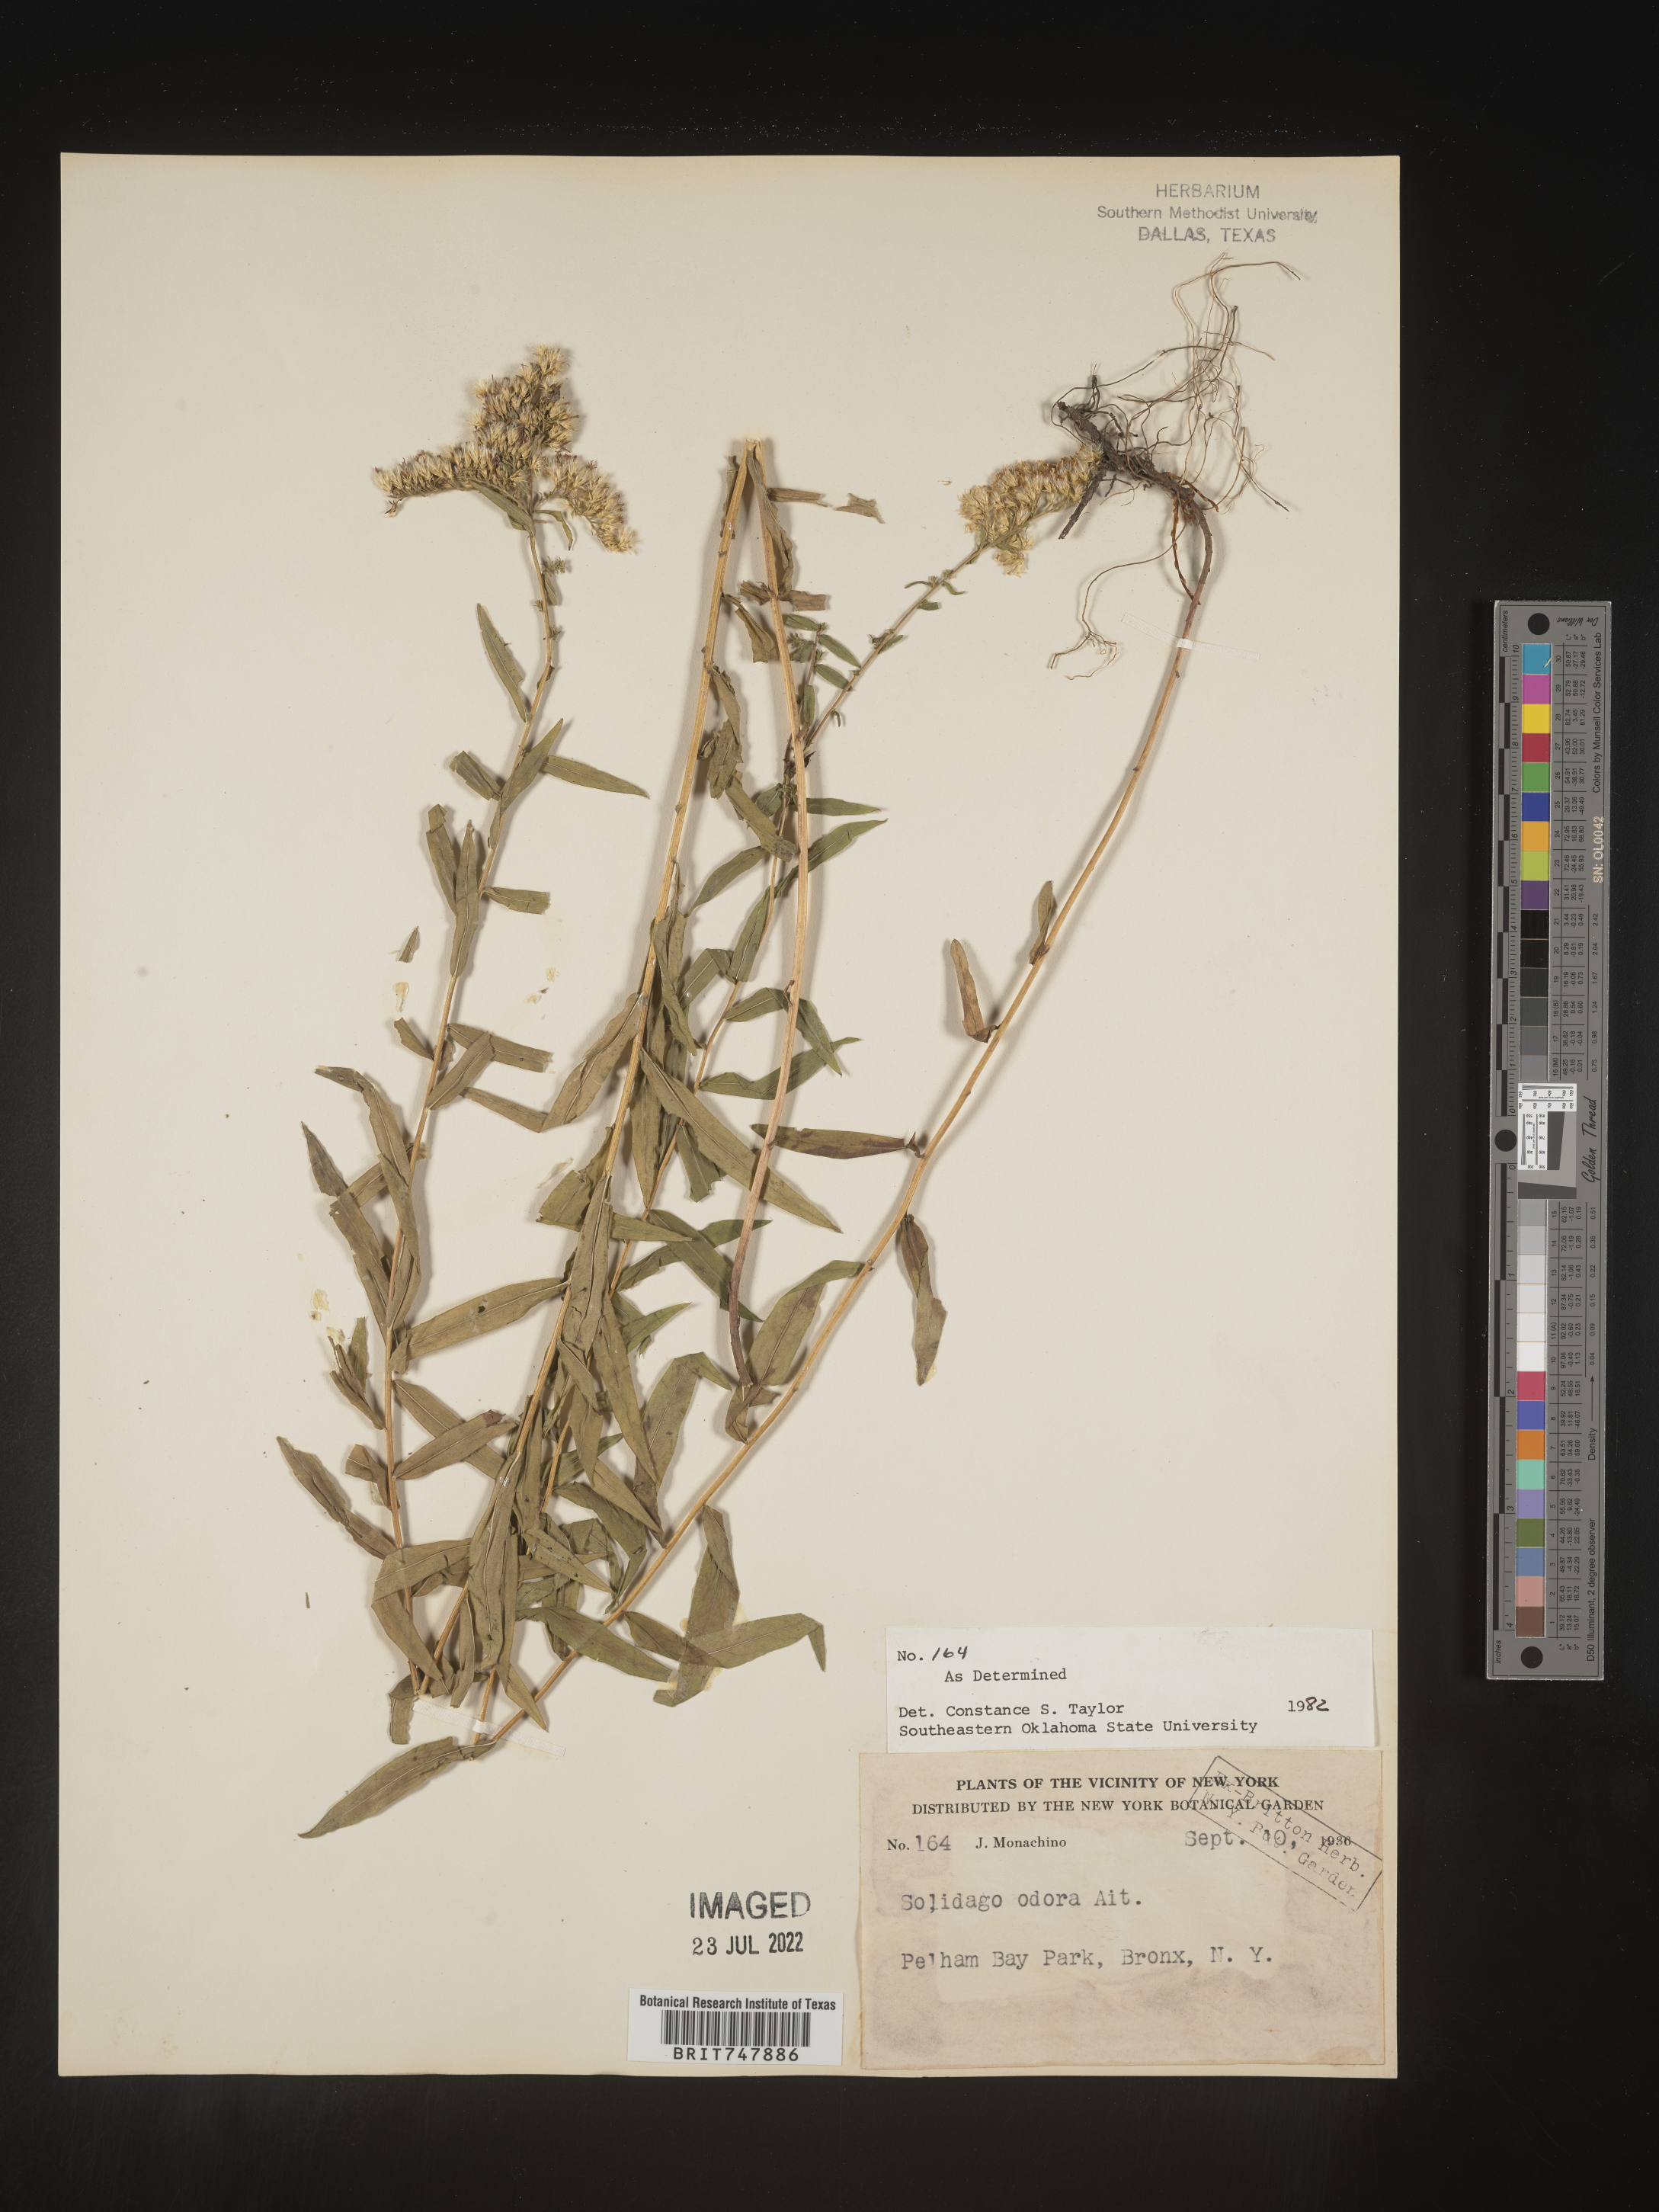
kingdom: Plantae
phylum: Tracheophyta
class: Magnoliopsida
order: Asterales
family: Asteraceae
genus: Solidago
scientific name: Solidago odora
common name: Anise-scented goldenrod
